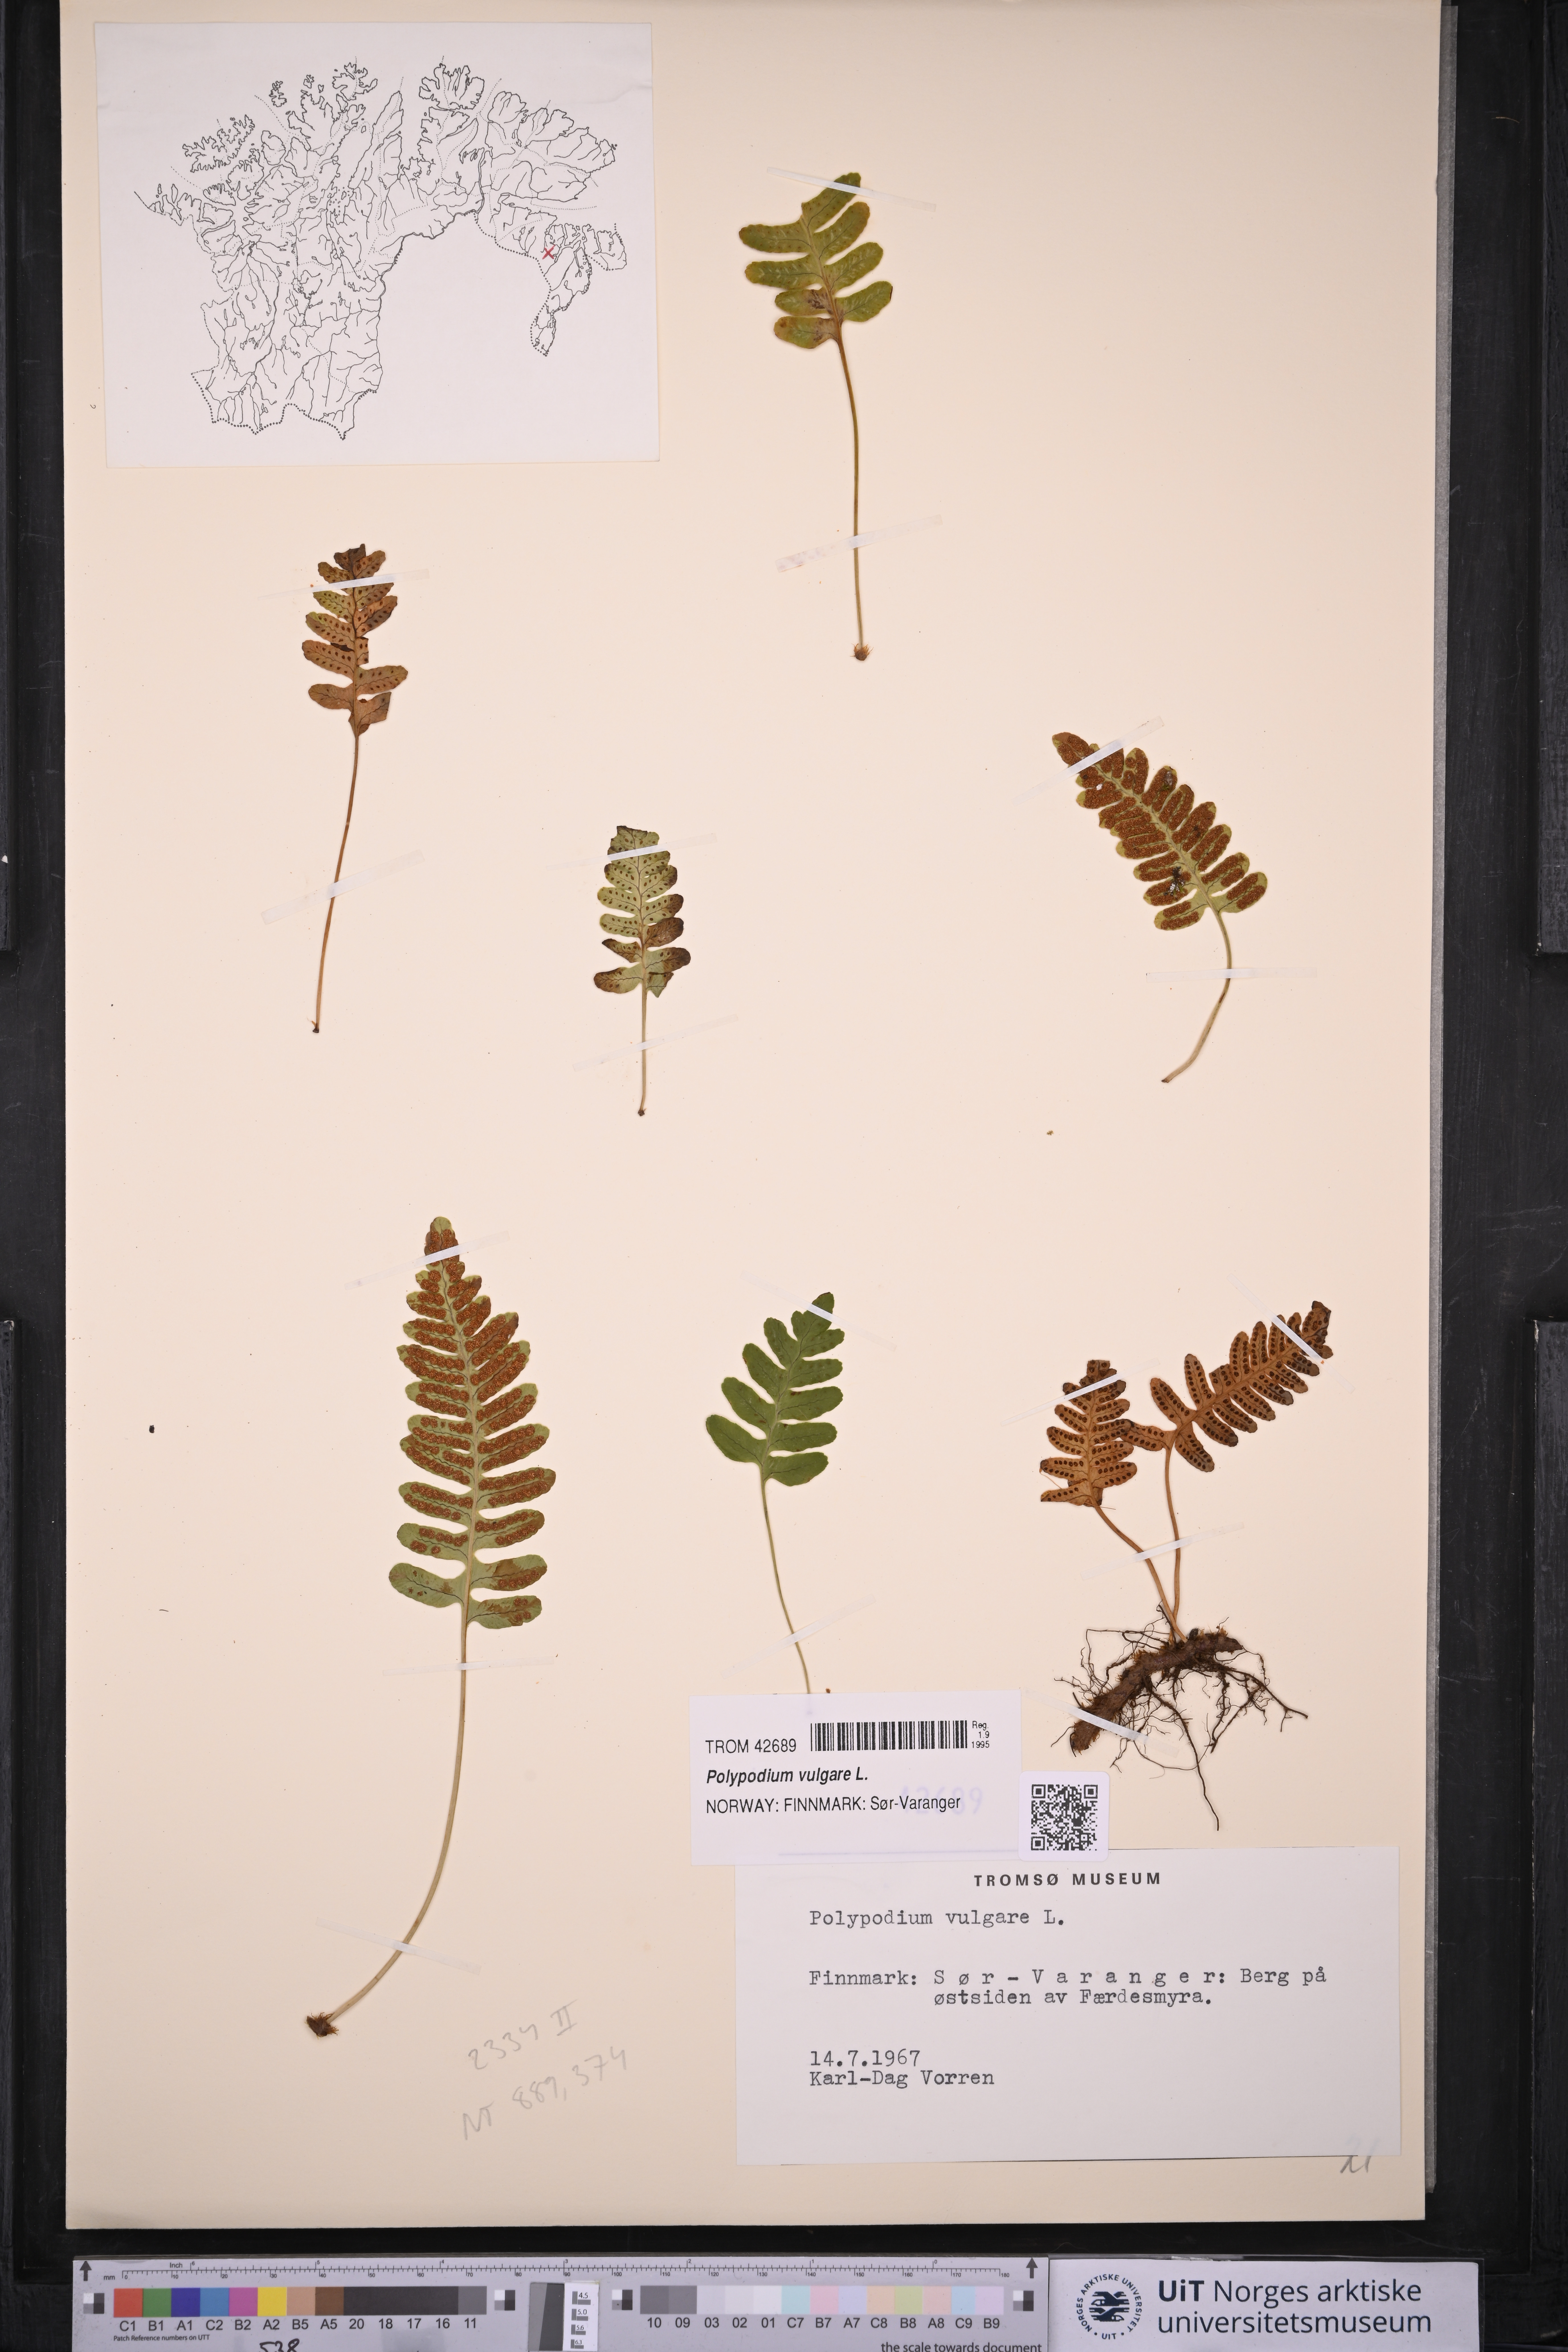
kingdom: Plantae
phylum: Tracheophyta
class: Polypodiopsida
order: Polypodiales
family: Polypodiaceae
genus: Polypodium
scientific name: Polypodium vulgare
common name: Common polypody
